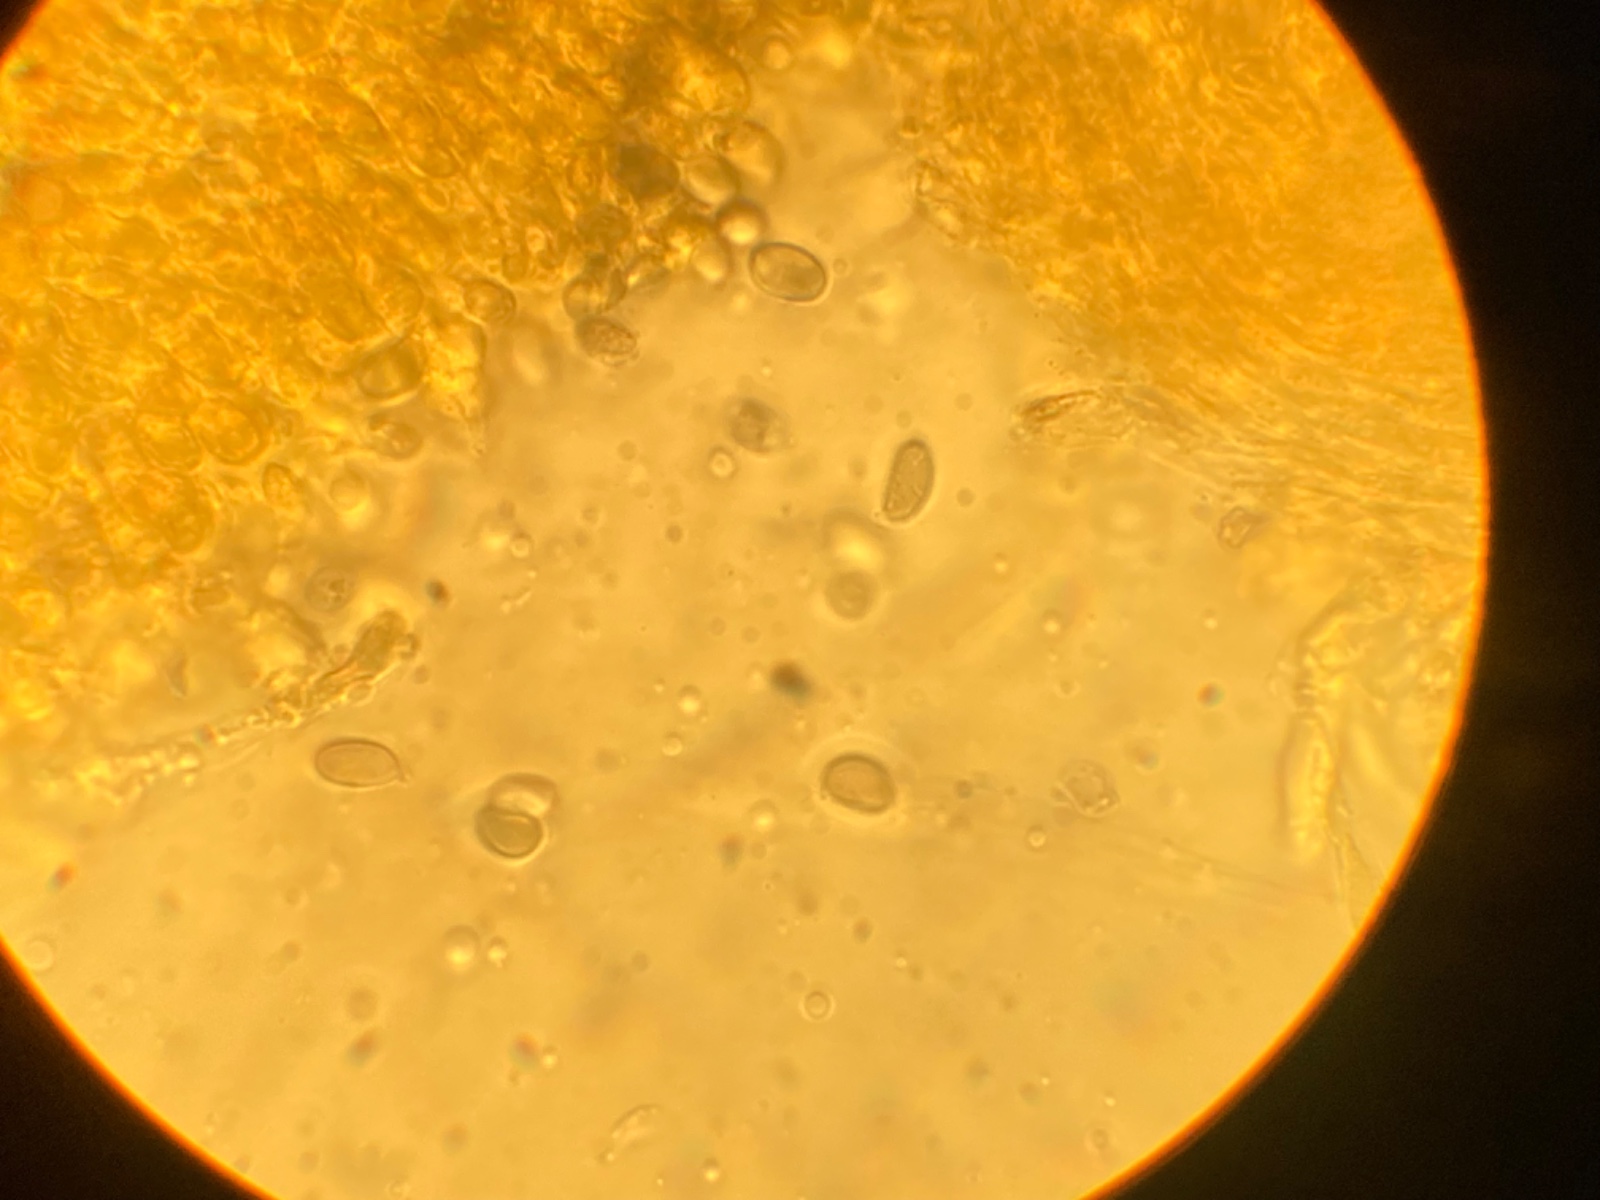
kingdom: Fungi
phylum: Basidiomycota
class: Agaricomycetes
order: Agaricales
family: Tricholomataceae
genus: Dermoloma
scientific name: Dermoloma pseudocuneifolium
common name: mark-nonnehat
